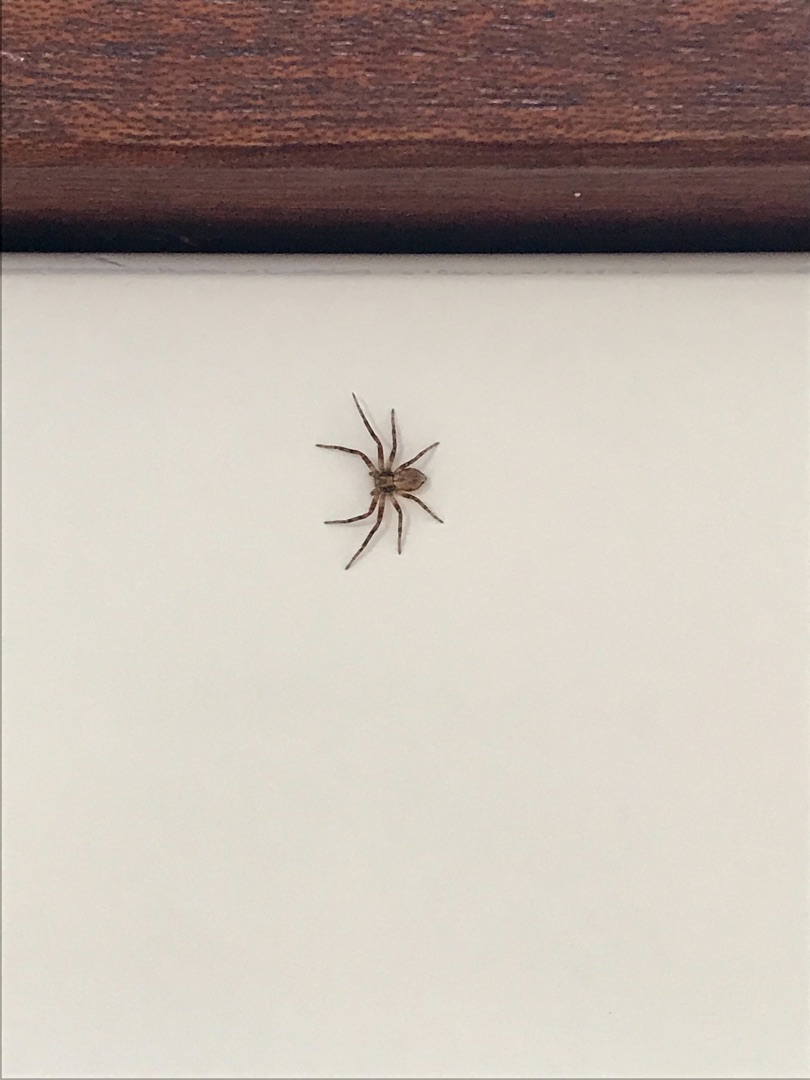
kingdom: Animalia
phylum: Arthropoda
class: Arachnida
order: Araneae
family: Philodromidae
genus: Philodromus
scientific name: Philodromus
